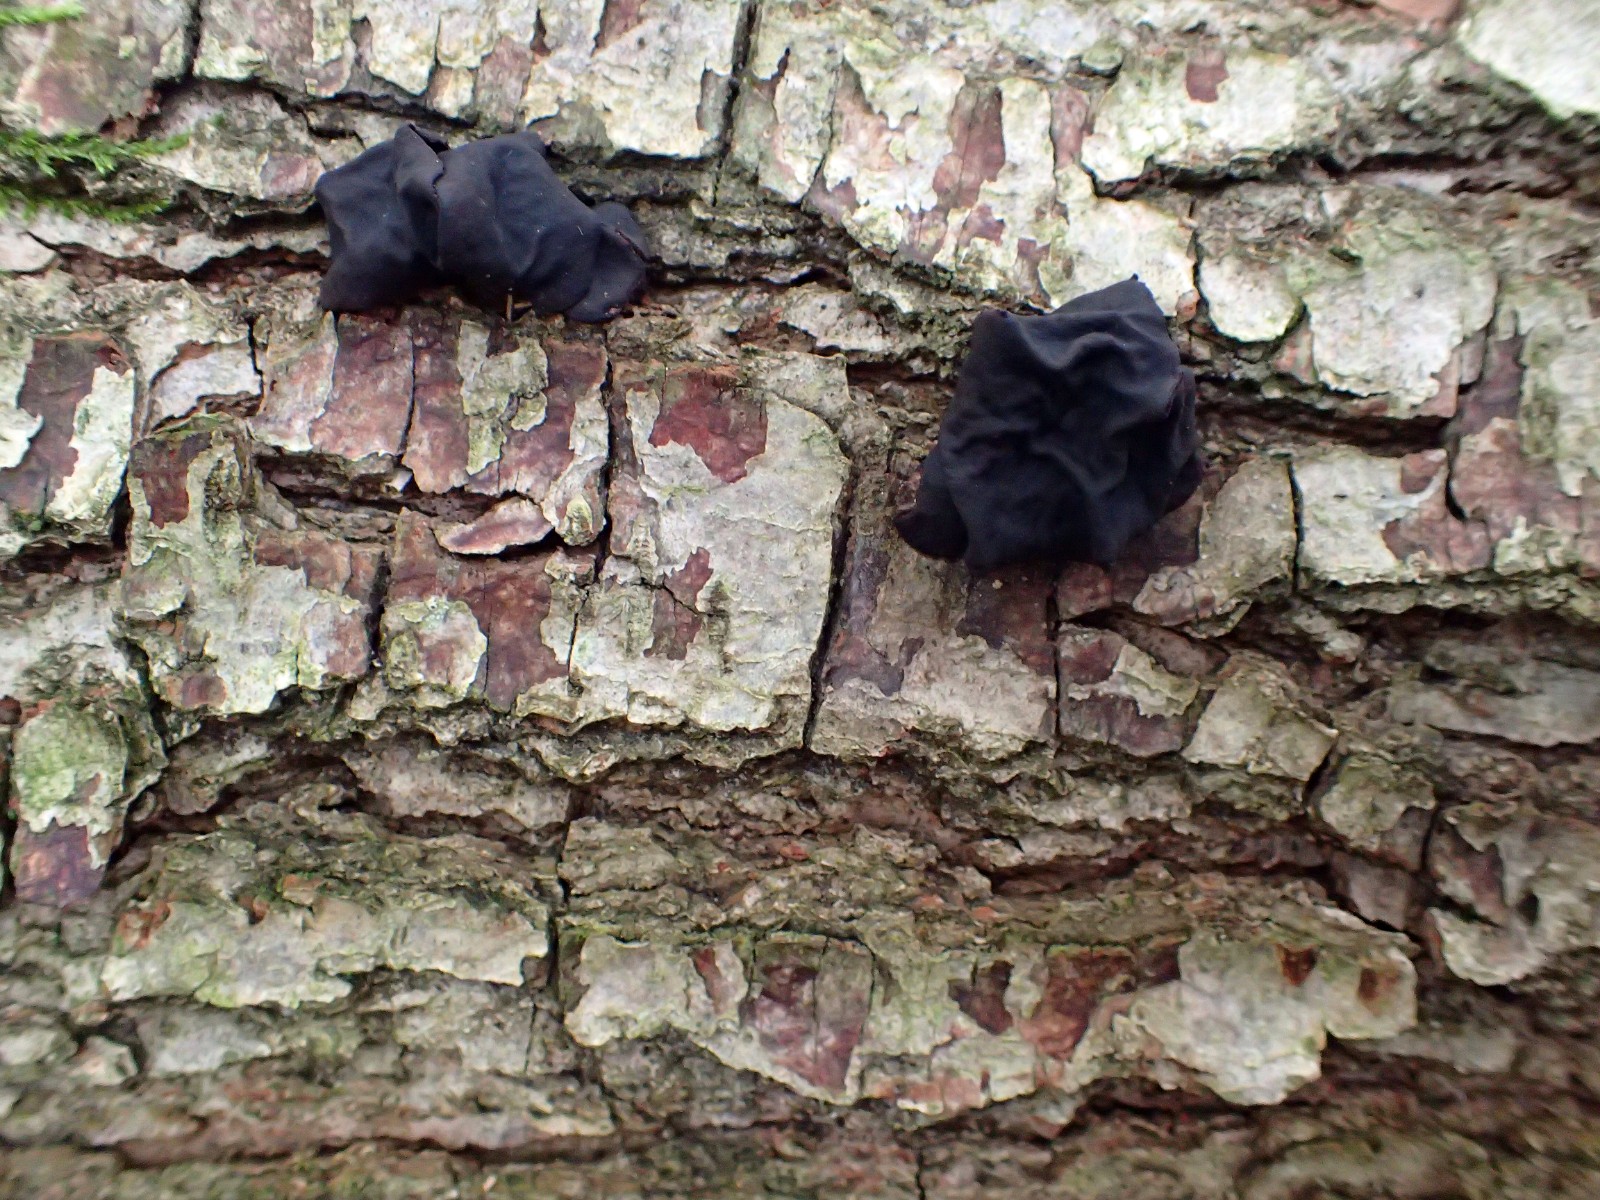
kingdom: Fungi
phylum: Basidiomycota
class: Agaricomycetes
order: Auriculariales
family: Auriculariaceae
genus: Exidia
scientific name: Exidia glandulosa
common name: ege-bævretop
